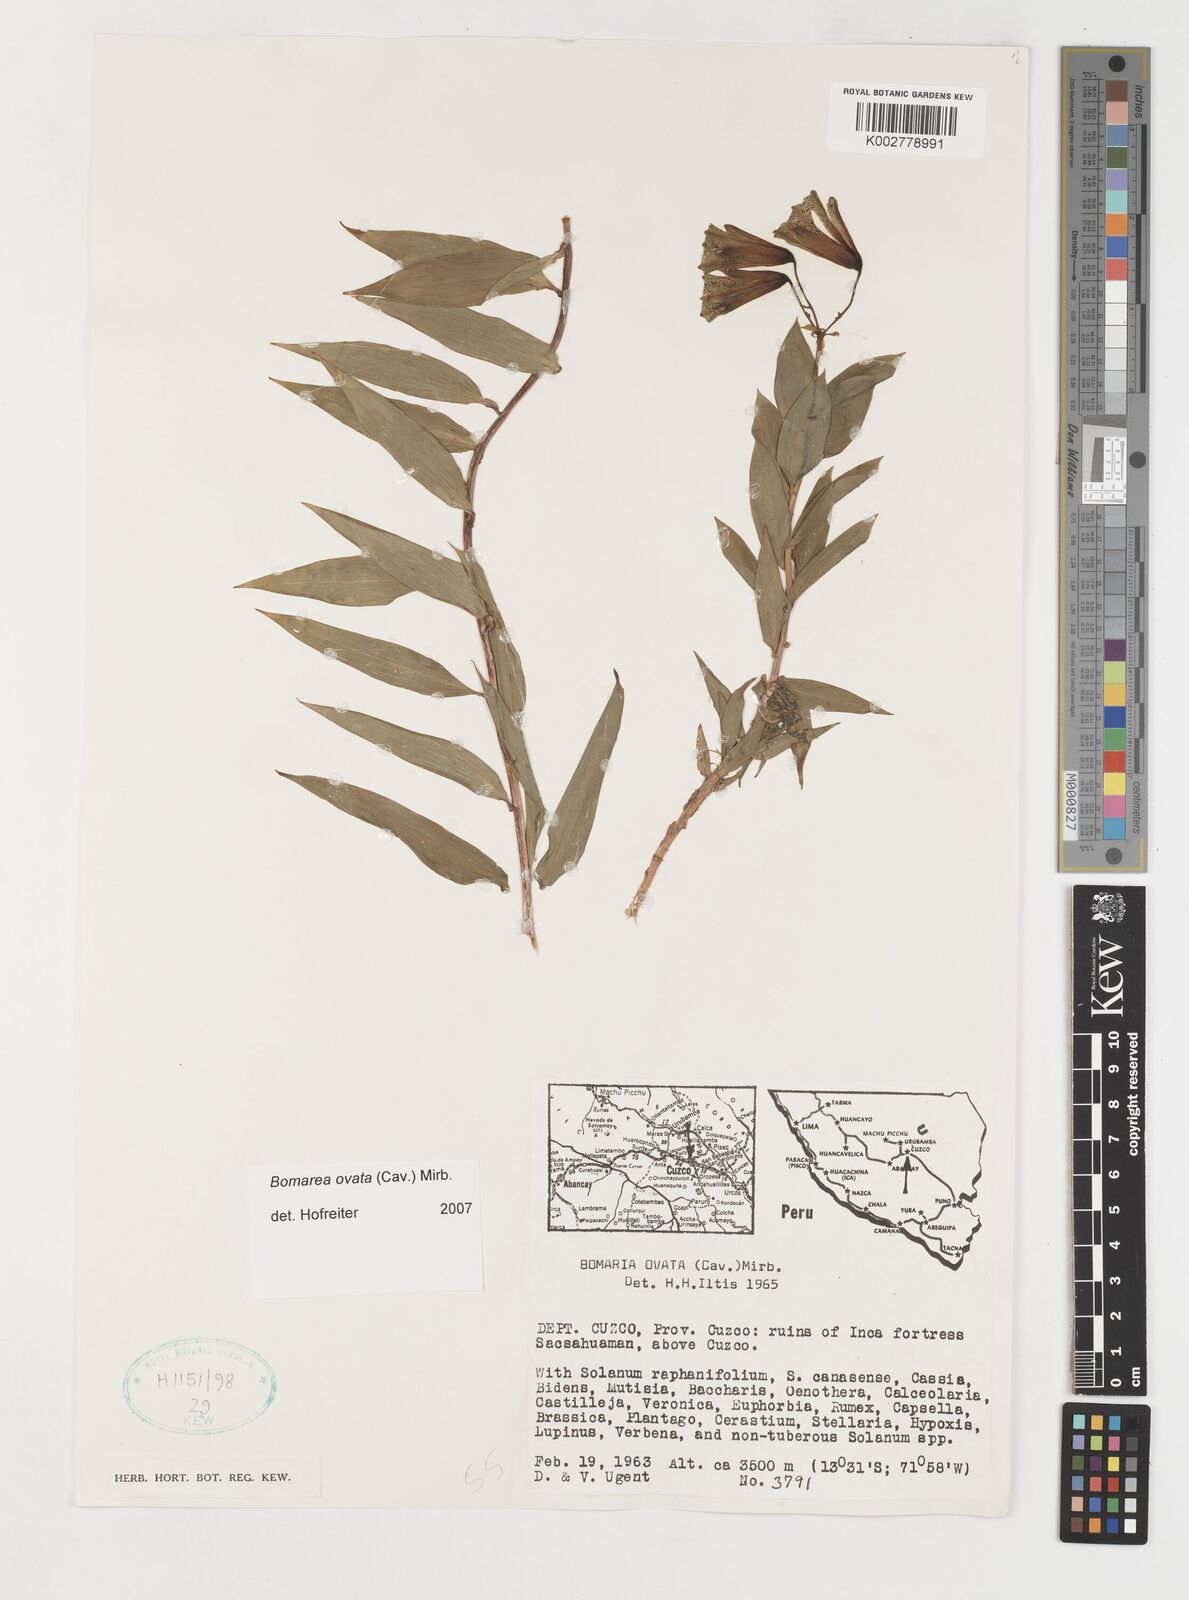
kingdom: Plantae
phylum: Tracheophyta
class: Liliopsida
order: Liliales
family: Alstroemeriaceae
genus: Bomarea
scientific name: Bomarea ovata
